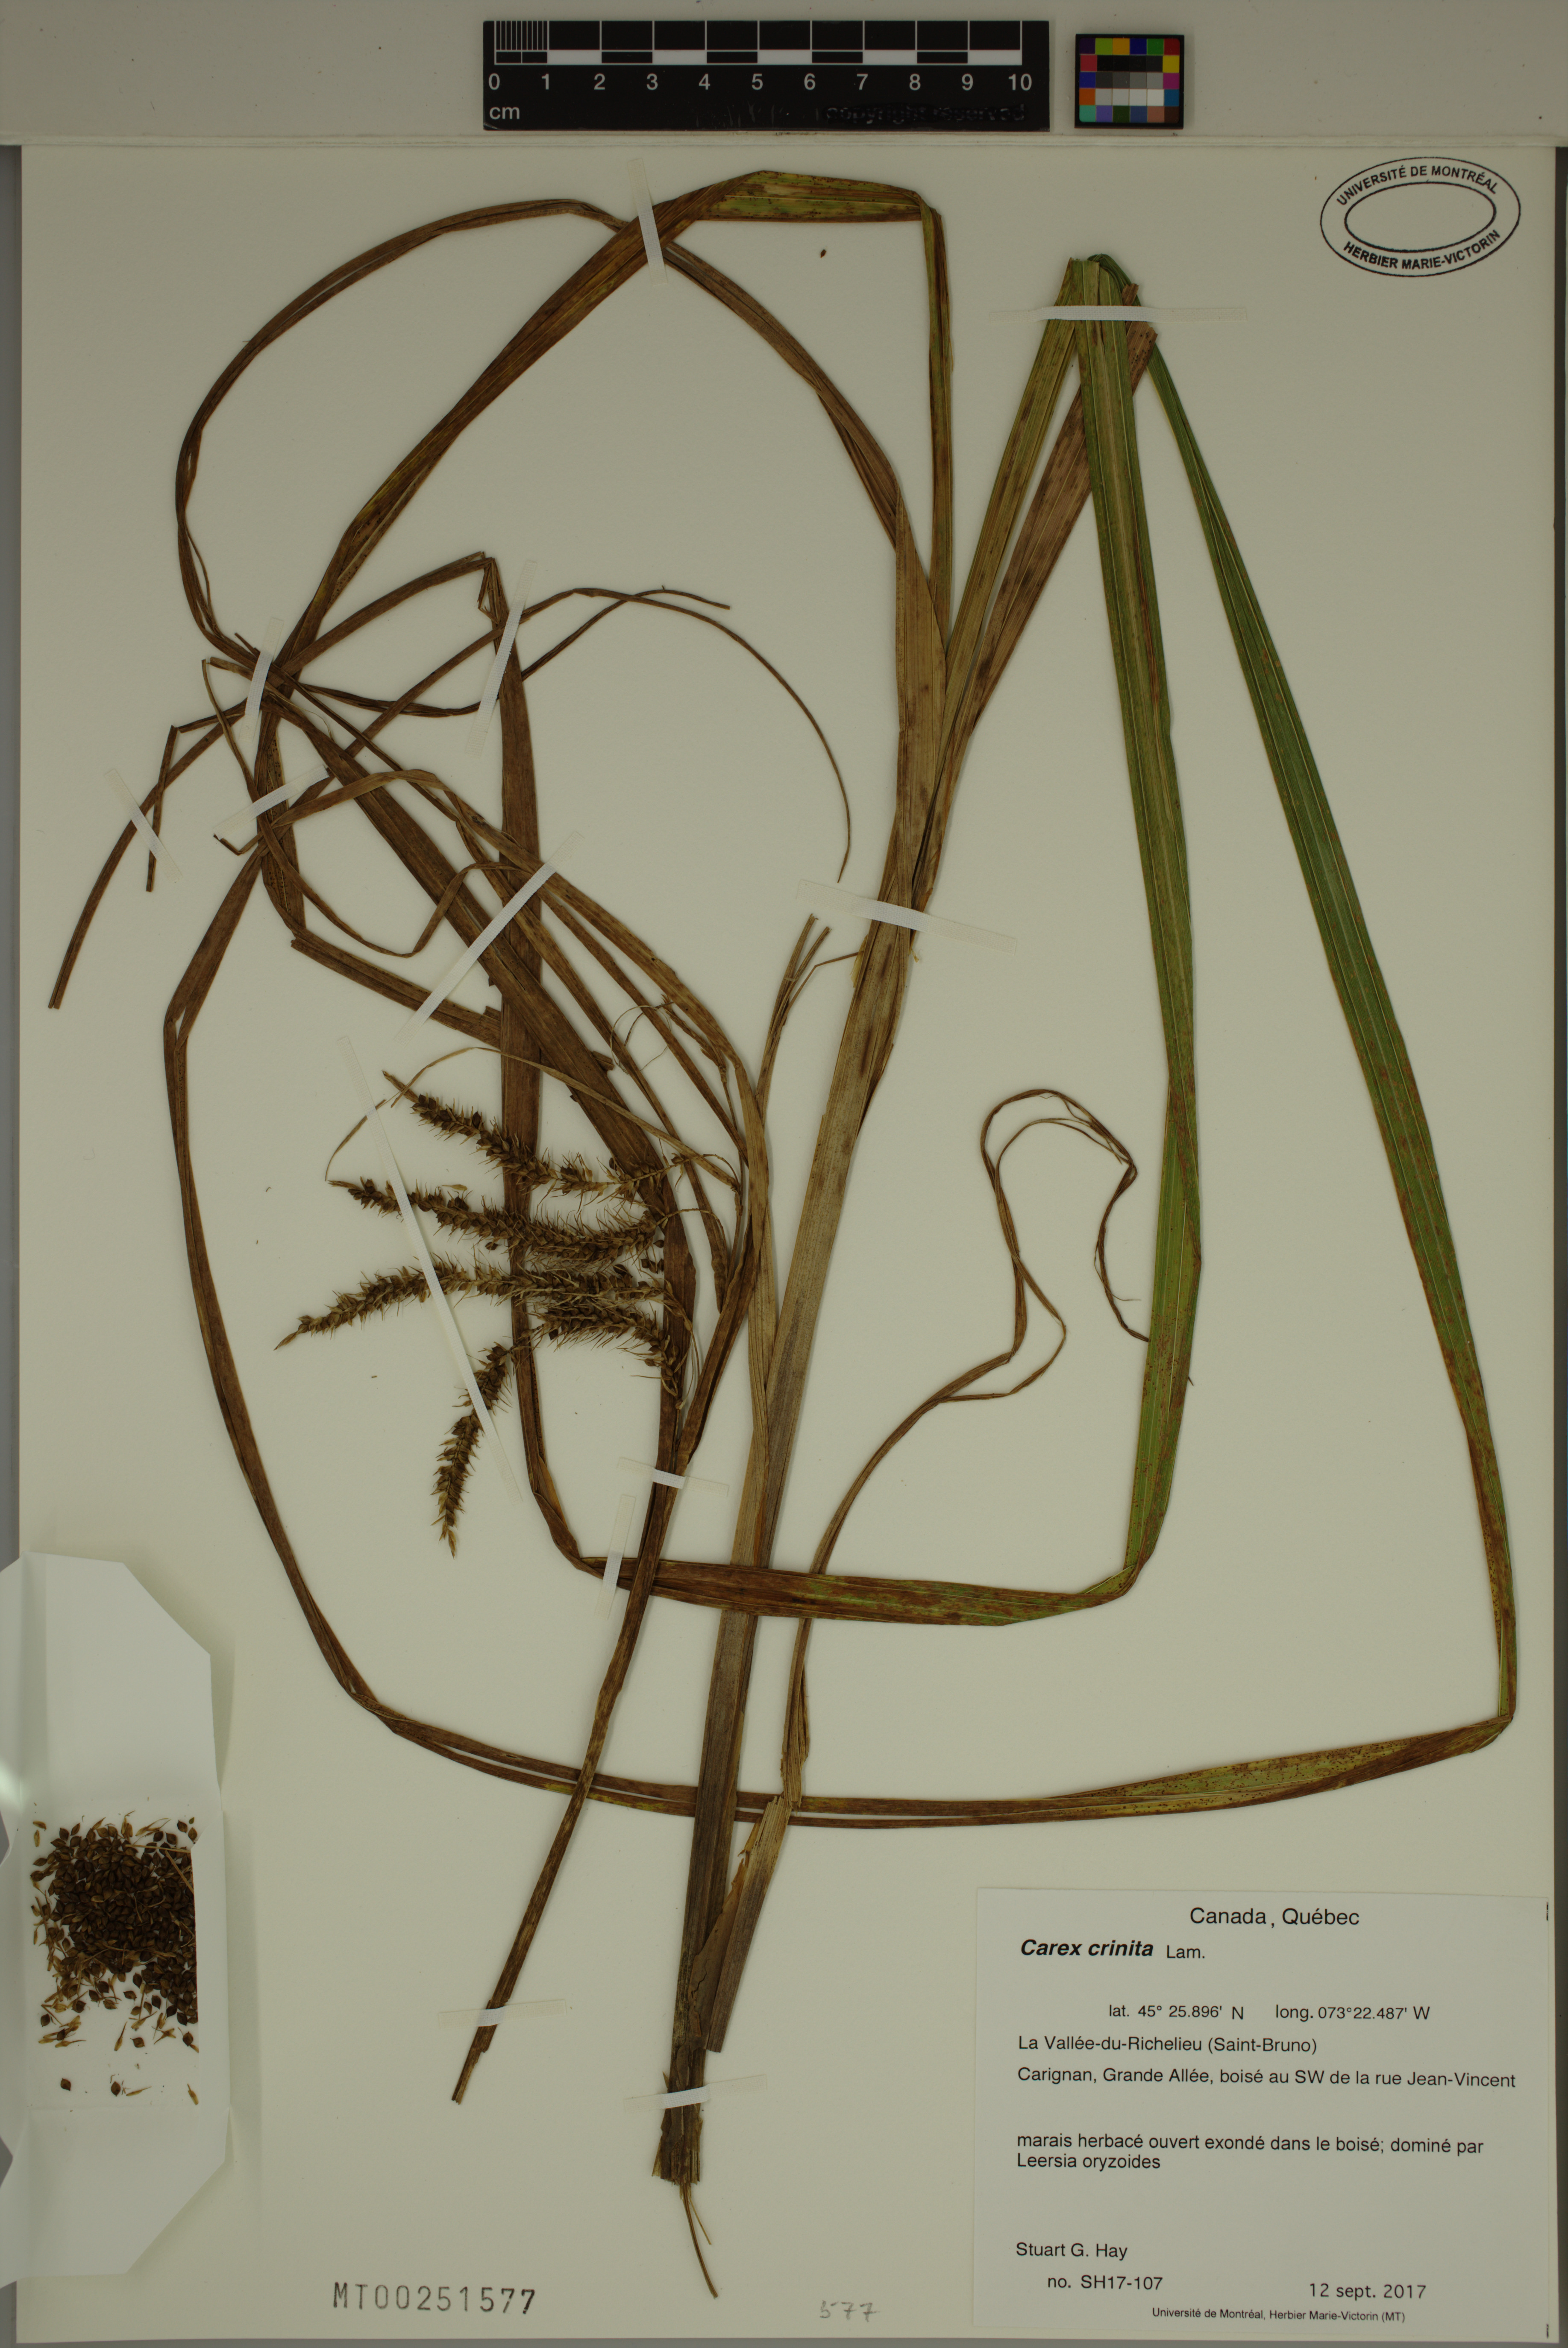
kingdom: Plantae
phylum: Tracheophyta
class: Liliopsida
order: Poales
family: Cyperaceae
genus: Carex
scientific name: Carex crinita
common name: Fringed sedge
